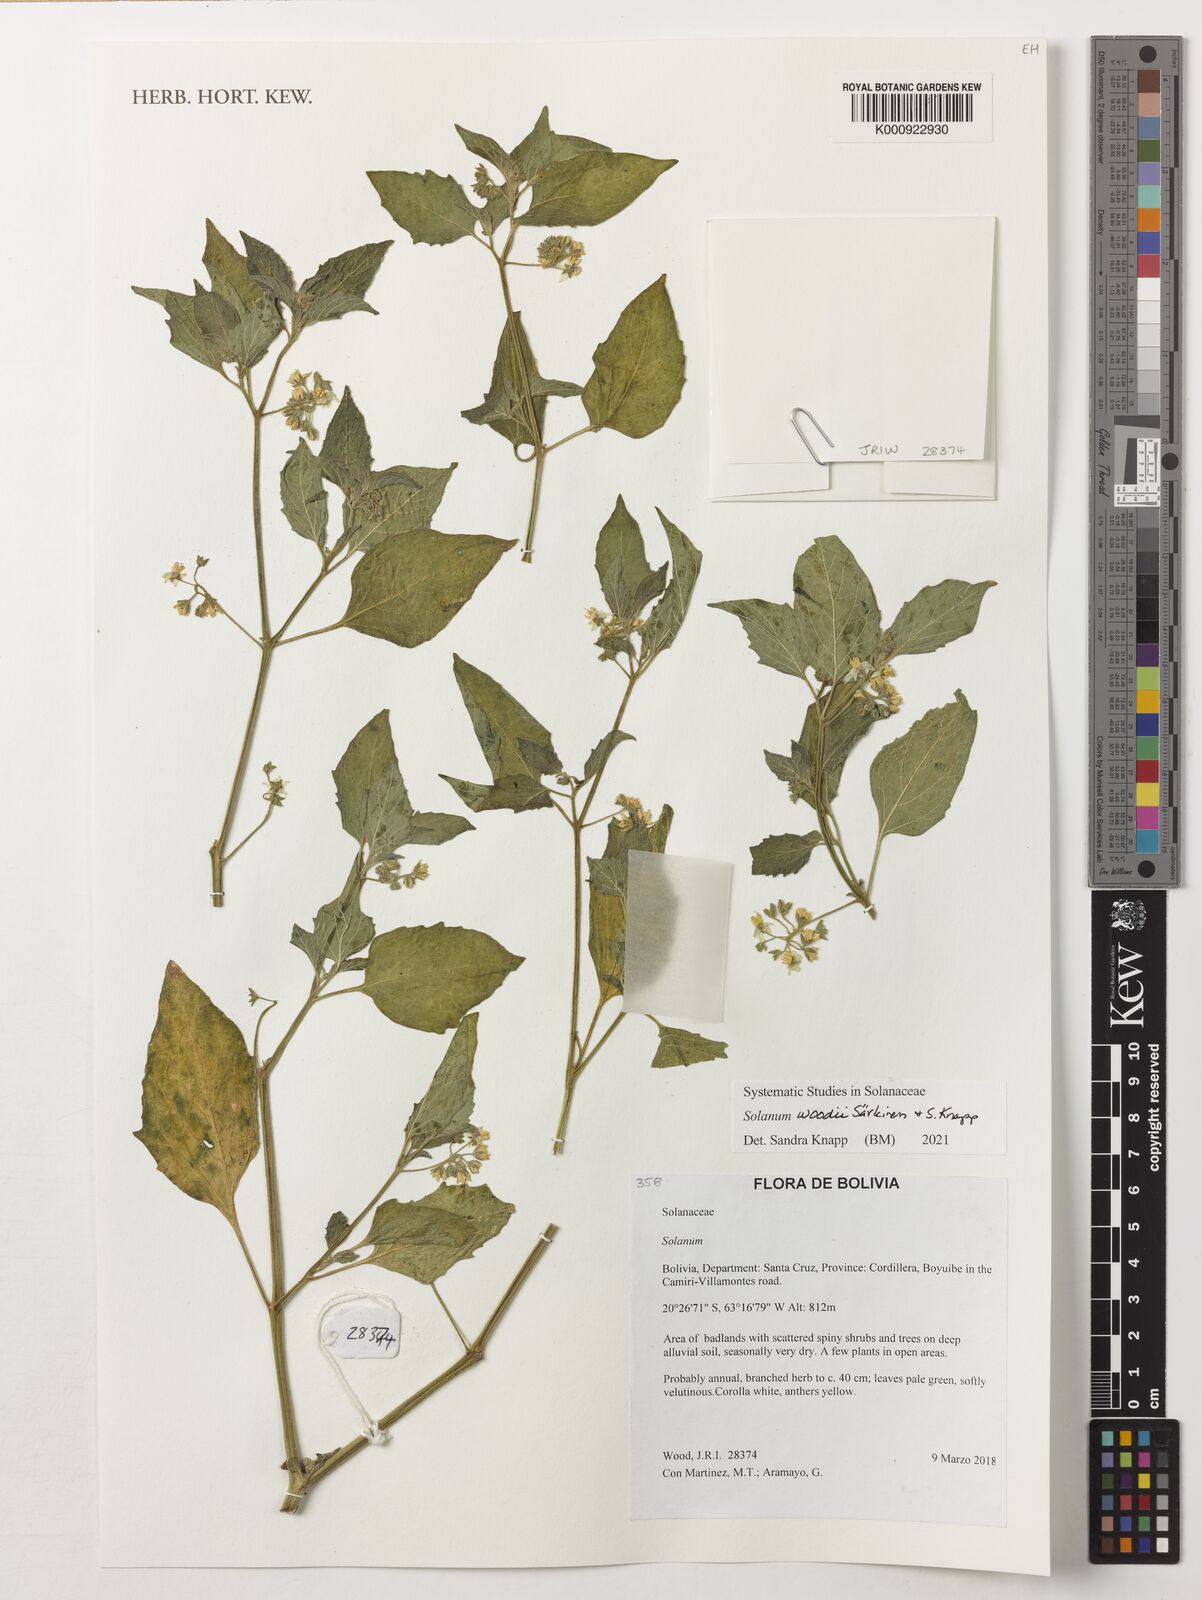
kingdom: Plantae
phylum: Tracheophyta
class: Magnoliopsida
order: Solanales
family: Solanaceae
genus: Solanum
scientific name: Solanum woodii
